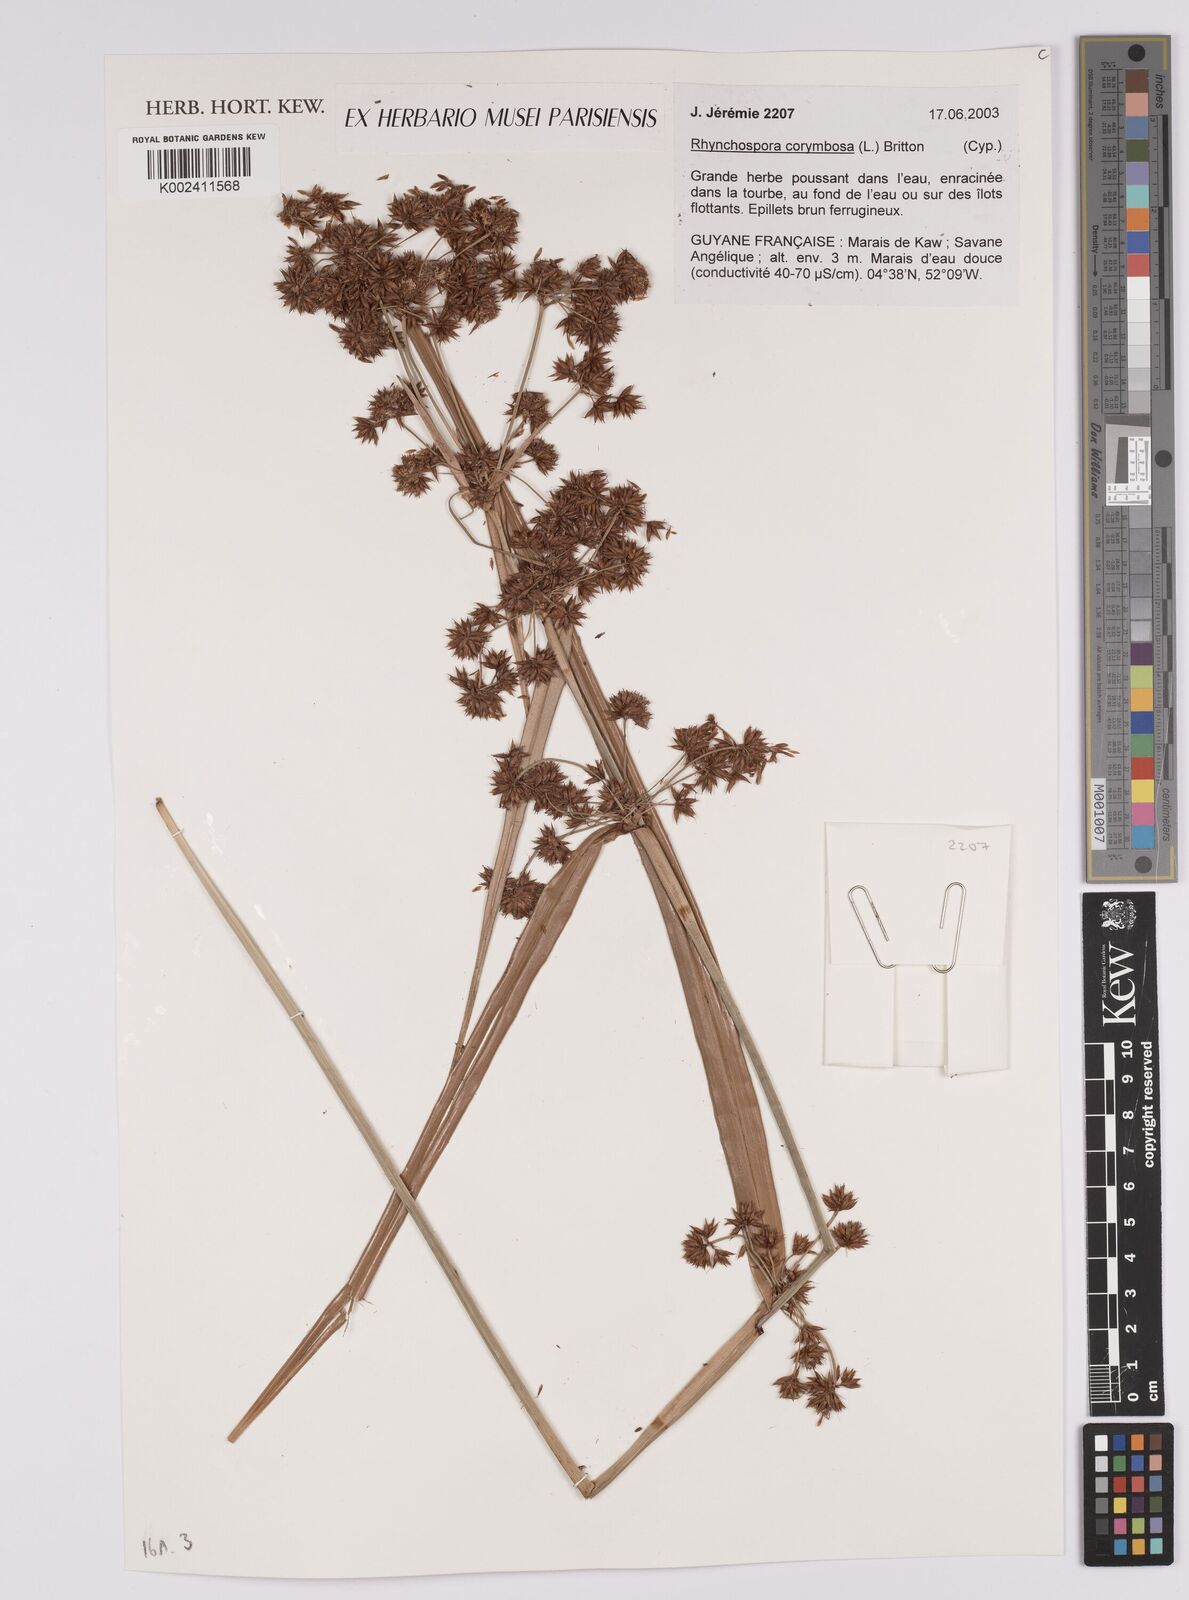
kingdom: Plantae
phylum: Tracheophyta
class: Liliopsida
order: Poales
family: Cyperaceae
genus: Rhynchospora
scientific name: Rhynchospora corymbosa
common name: Golden beak sedge
